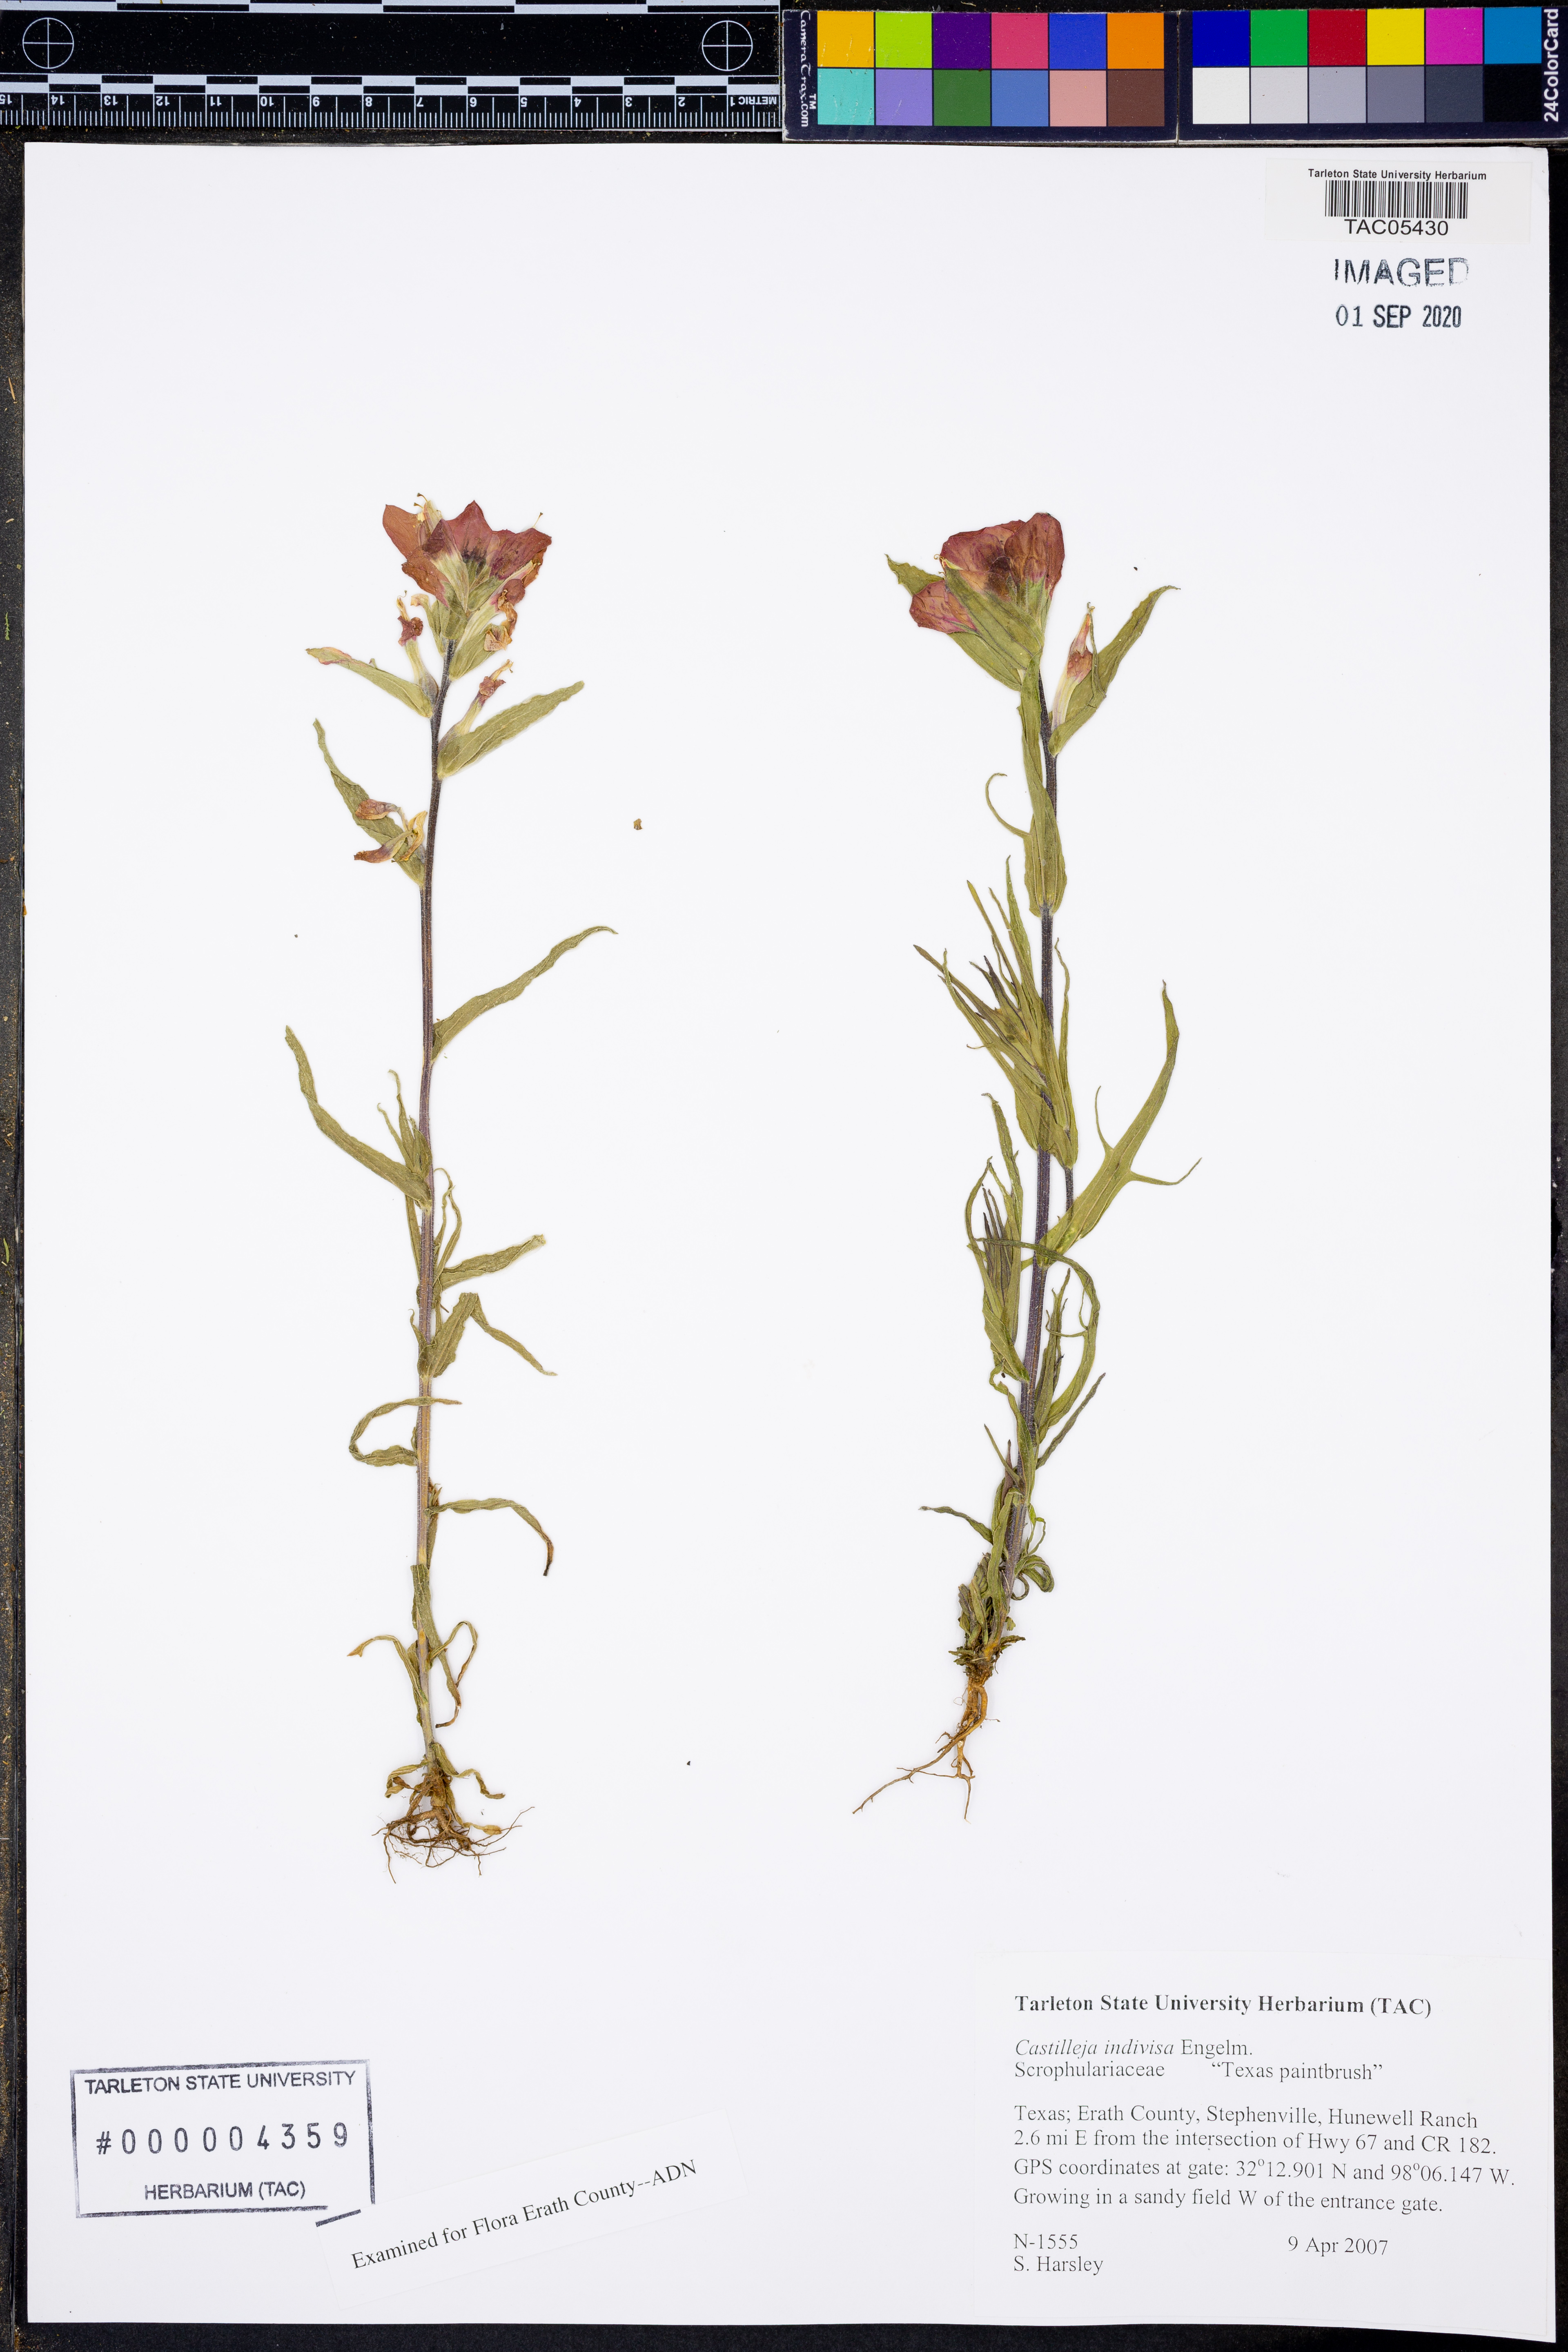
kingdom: Plantae
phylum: Tracheophyta
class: Magnoliopsida
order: Lamiales
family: Orobanchaceae
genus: Castilleja
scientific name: Castilleja indivisa
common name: Texas paintbrush
